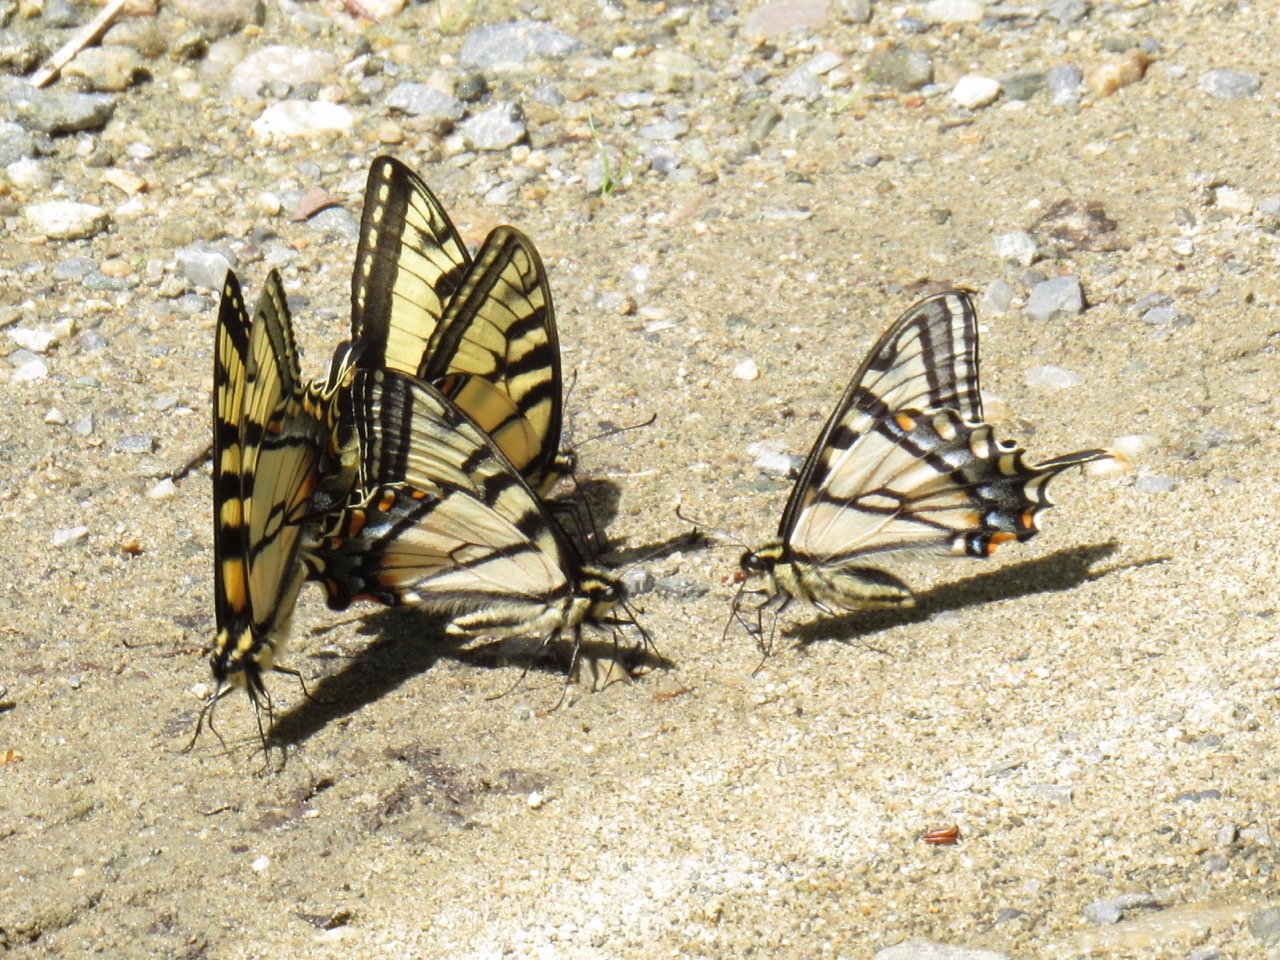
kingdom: Animalia
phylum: Arthropoda
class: Insecta
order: Lepidoptera
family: Papilionidae
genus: Pterourus
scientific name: Pterourus canadensis
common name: Canadian Tiger Swallowtail
